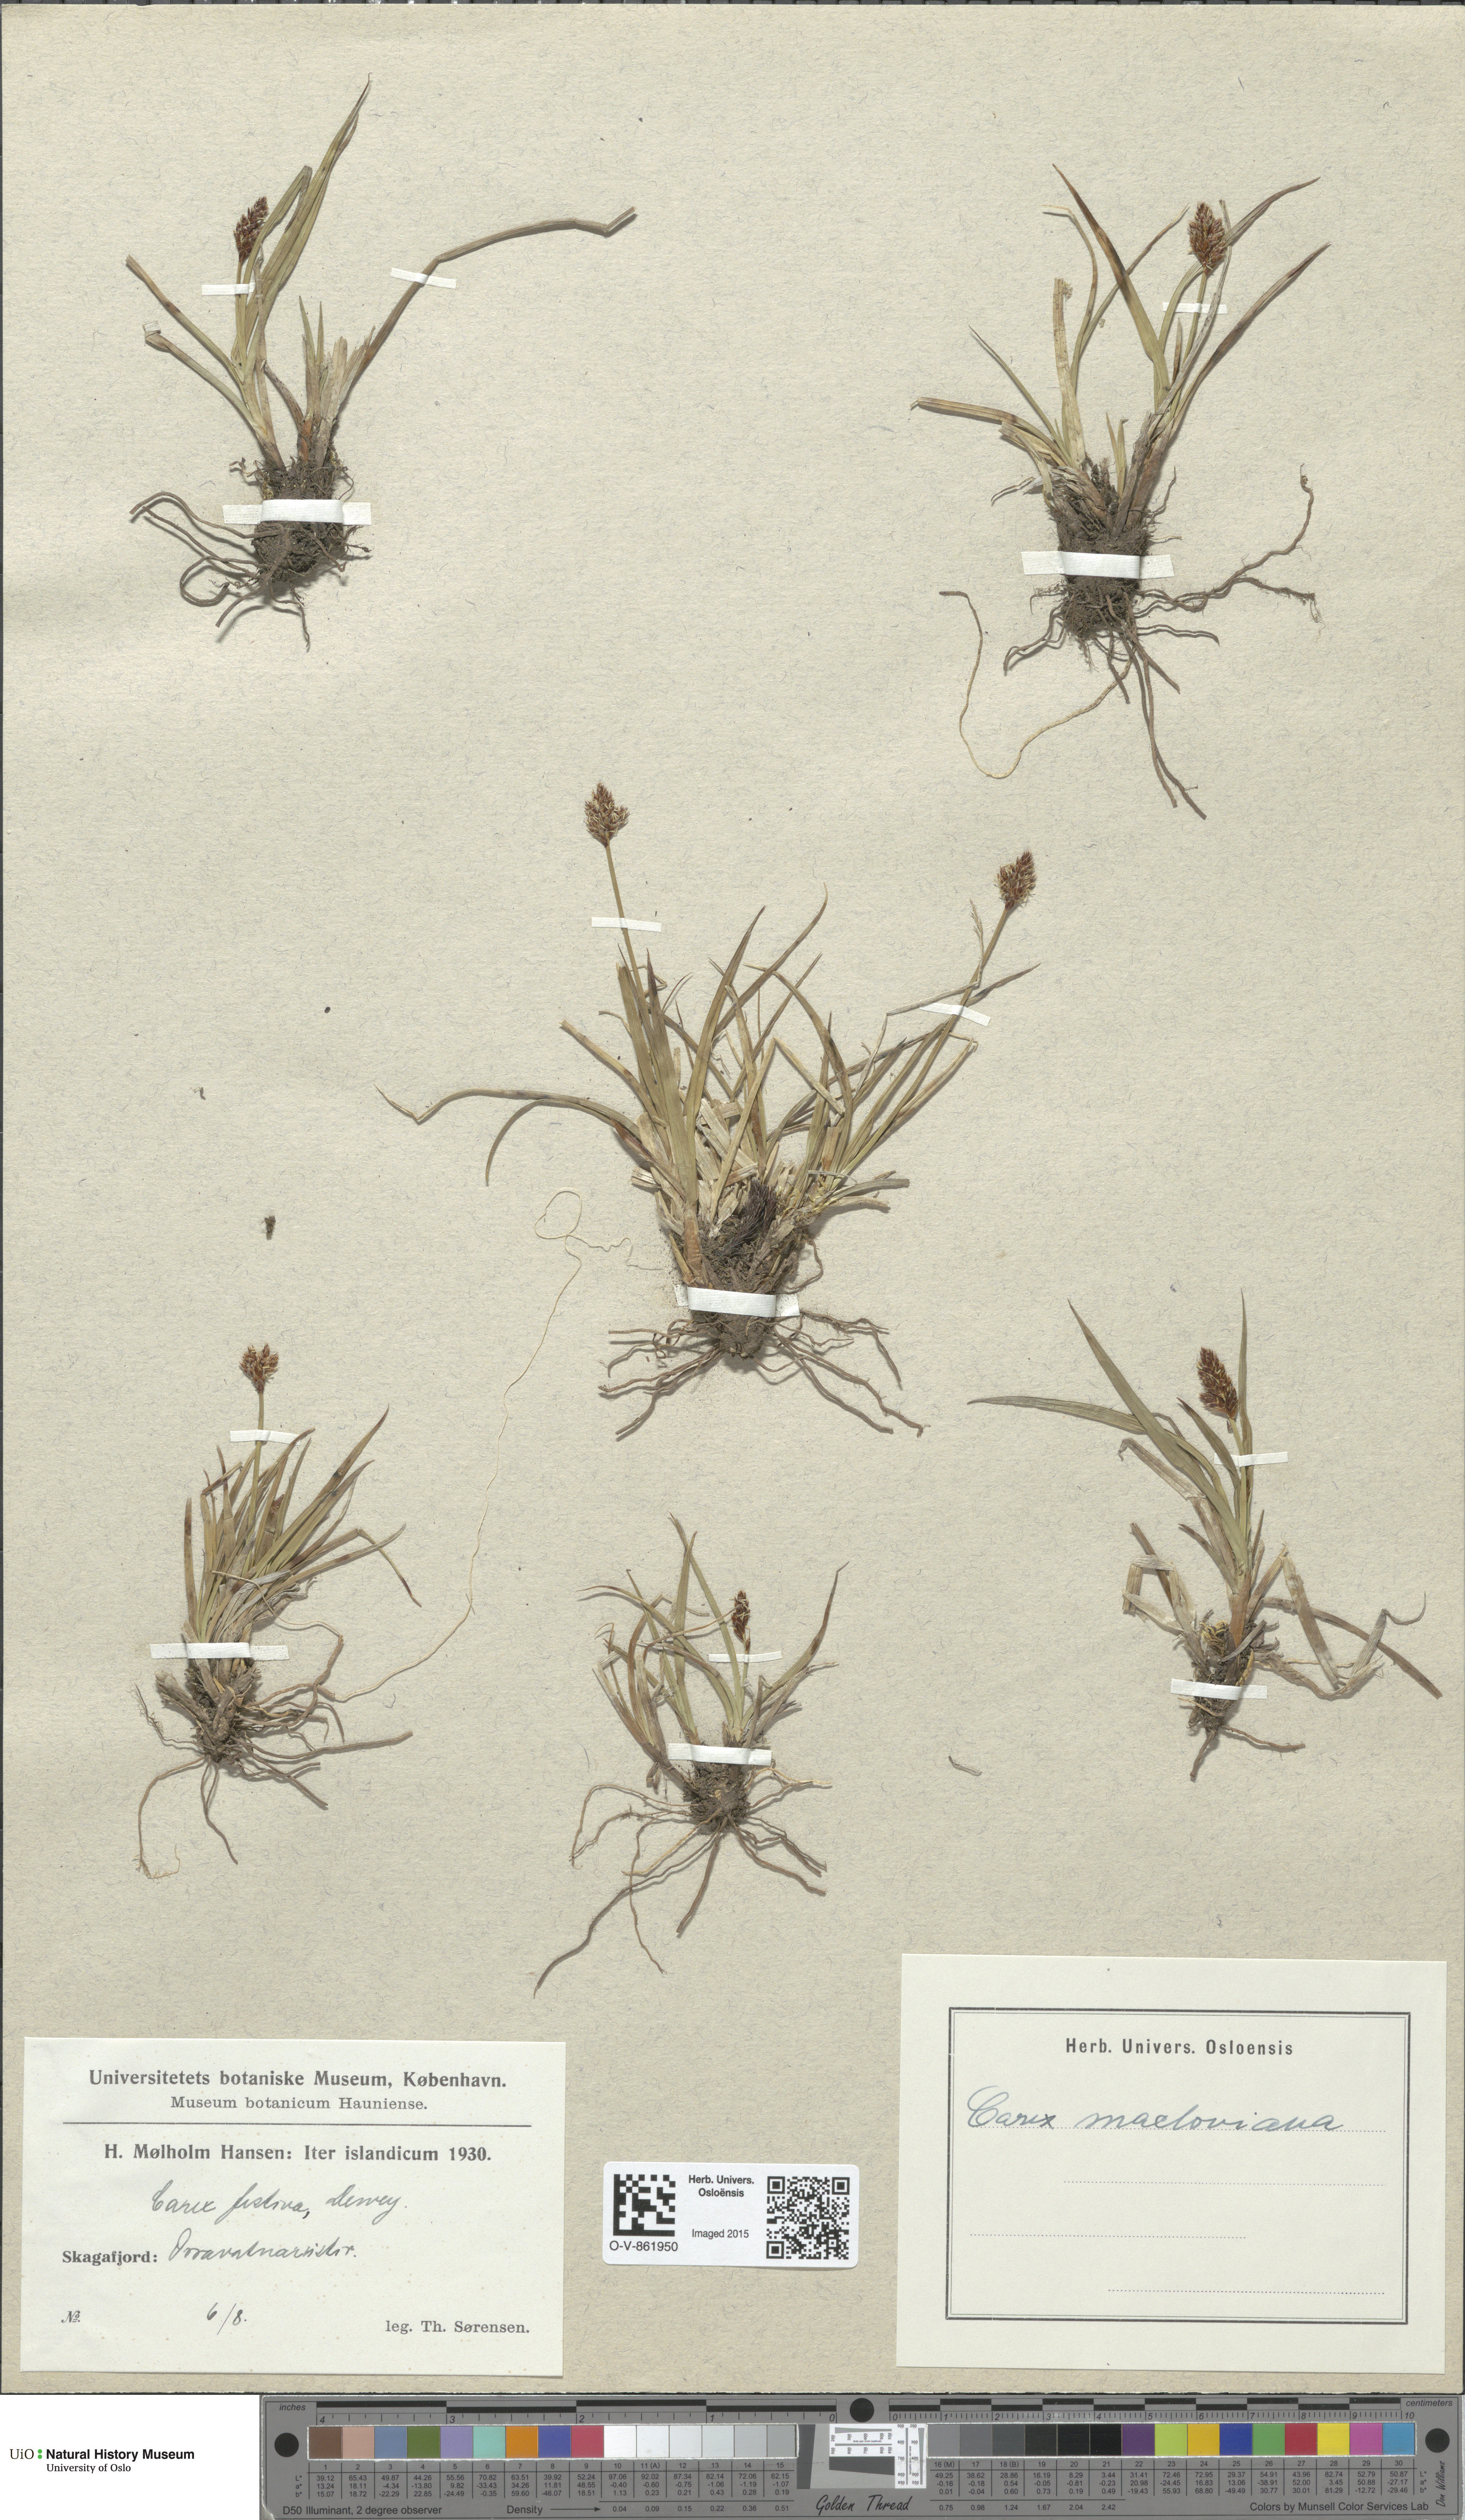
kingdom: Plantae
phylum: Tracheophyta
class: Liliopsida
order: Poales
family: Cyperaceae
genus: Carex
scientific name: Carex macloviana
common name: Falkland island sedge
